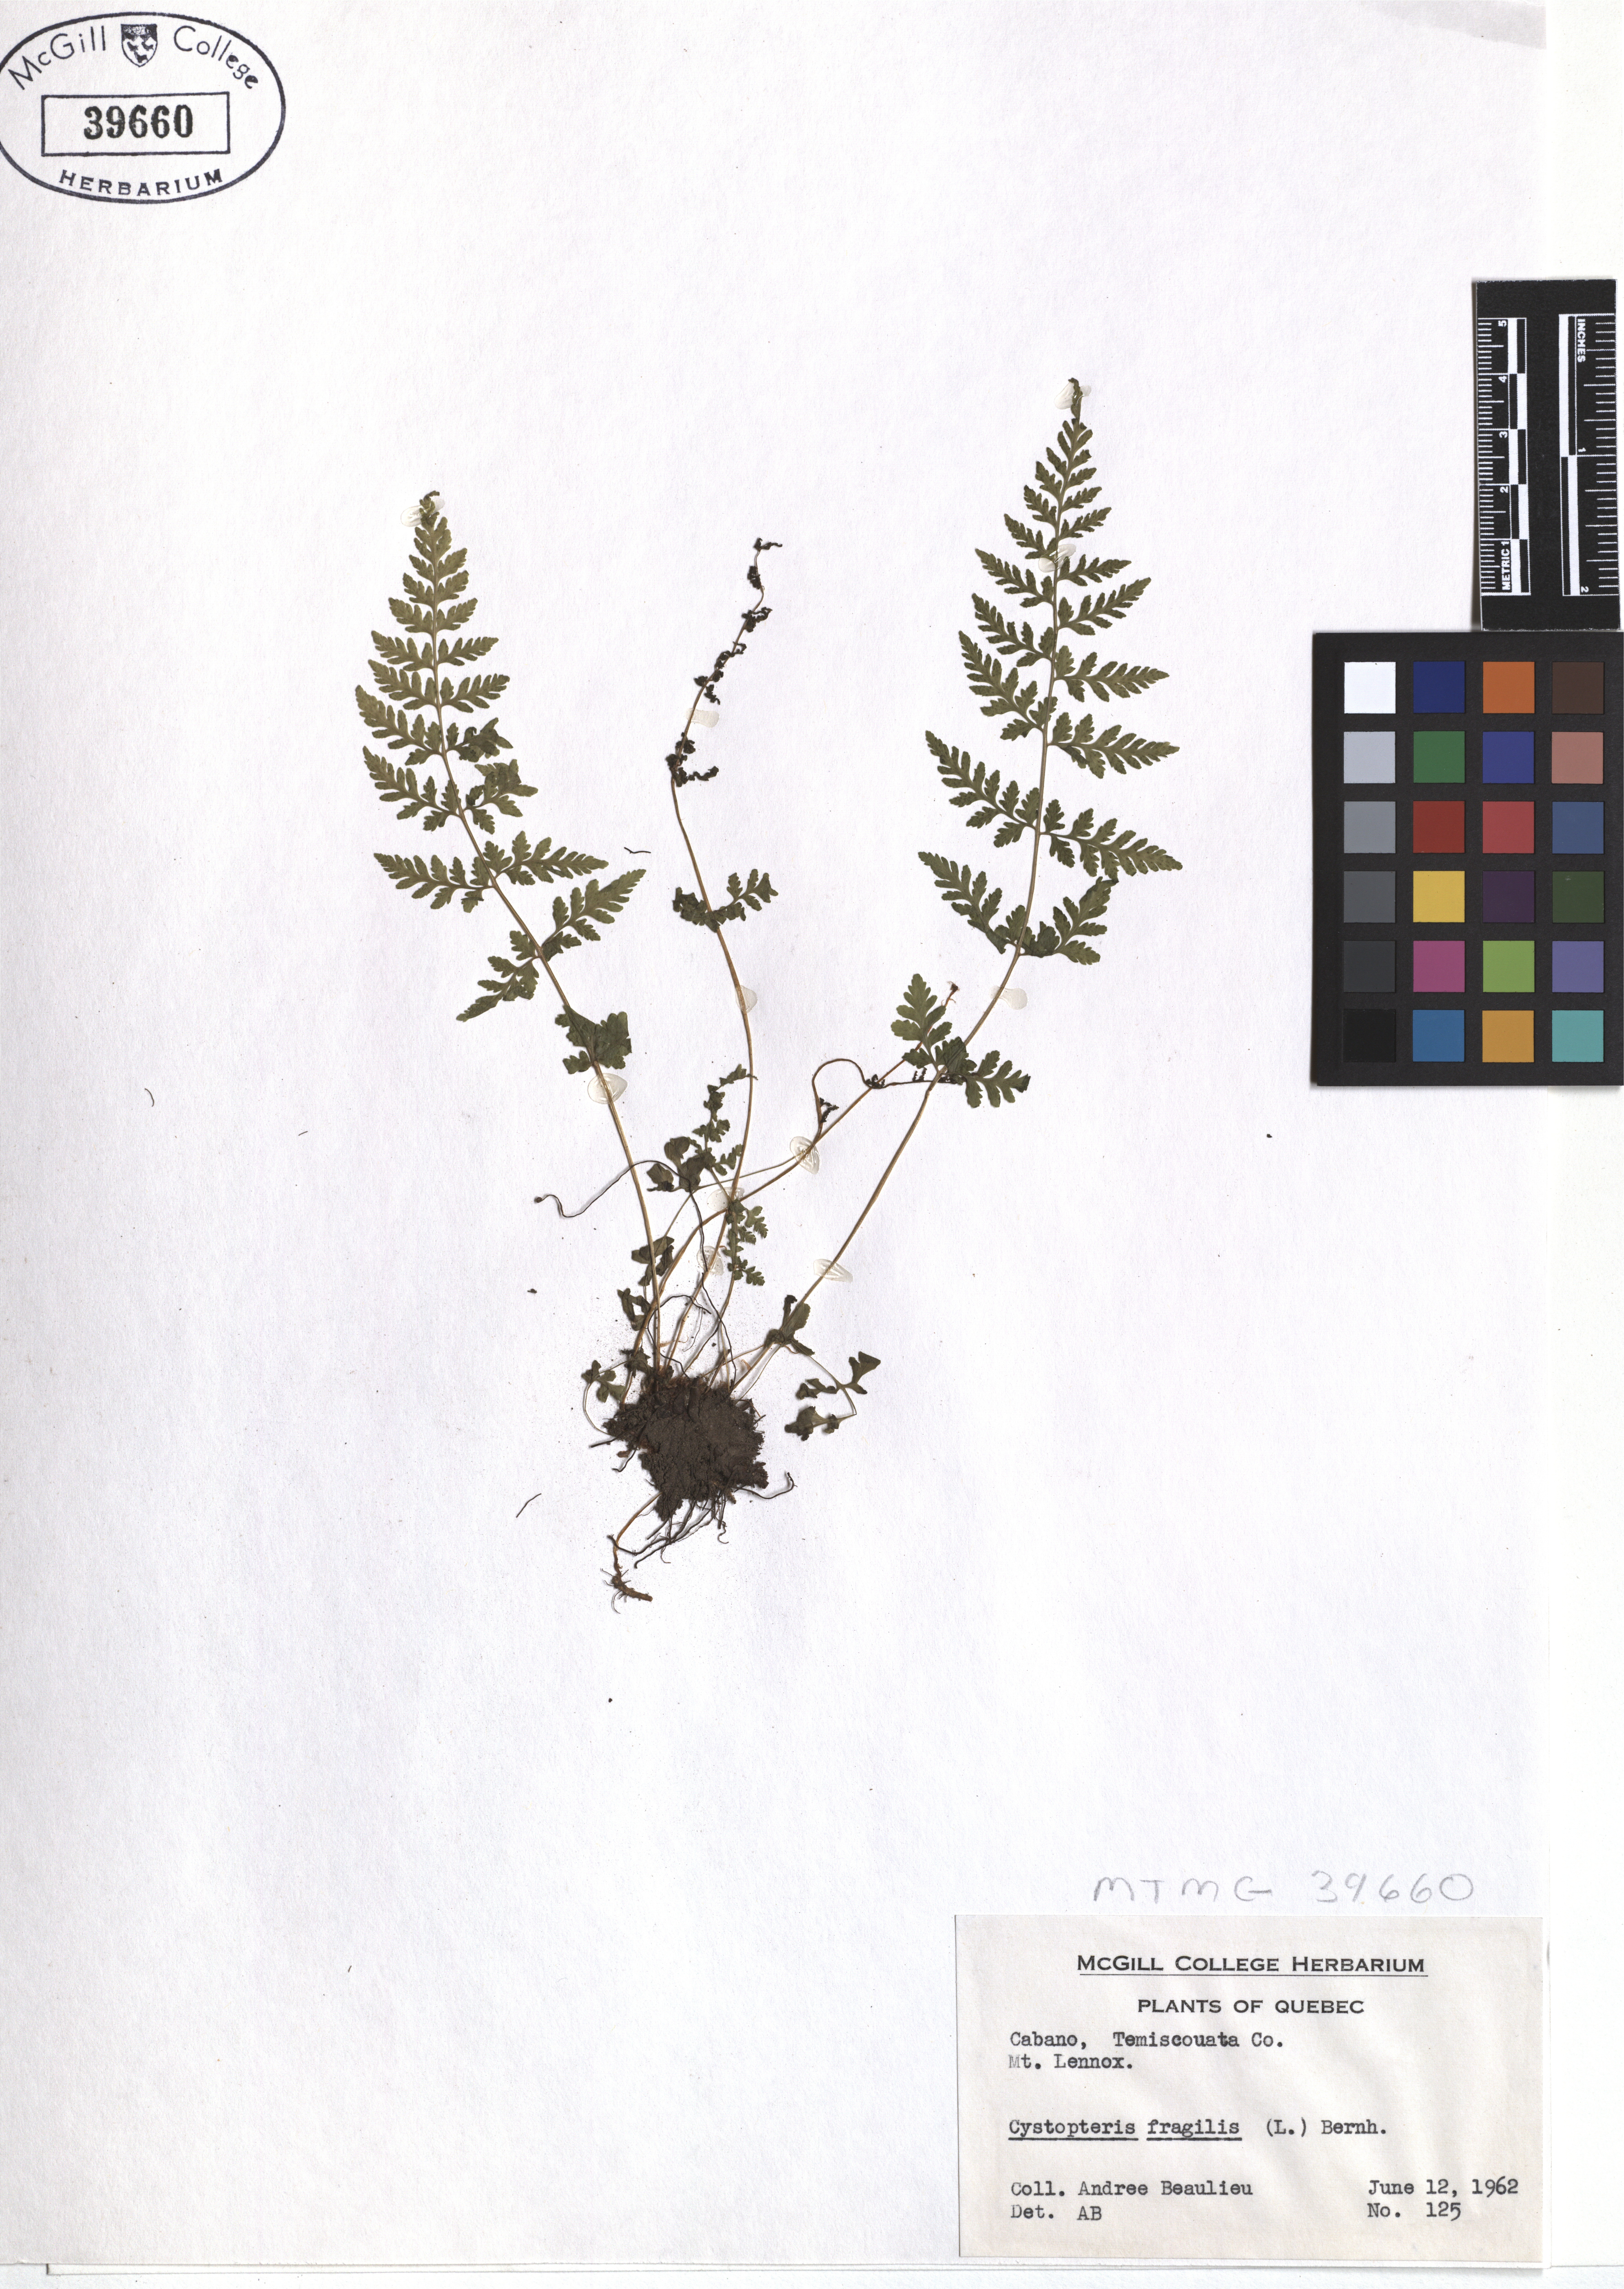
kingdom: Plantae
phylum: Tracheophyta
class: Polypodiopsida
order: Polypodiales
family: Cystopteridaceae
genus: Cystopteris
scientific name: Cystopteris fragilis
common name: Brittle bladder fern
